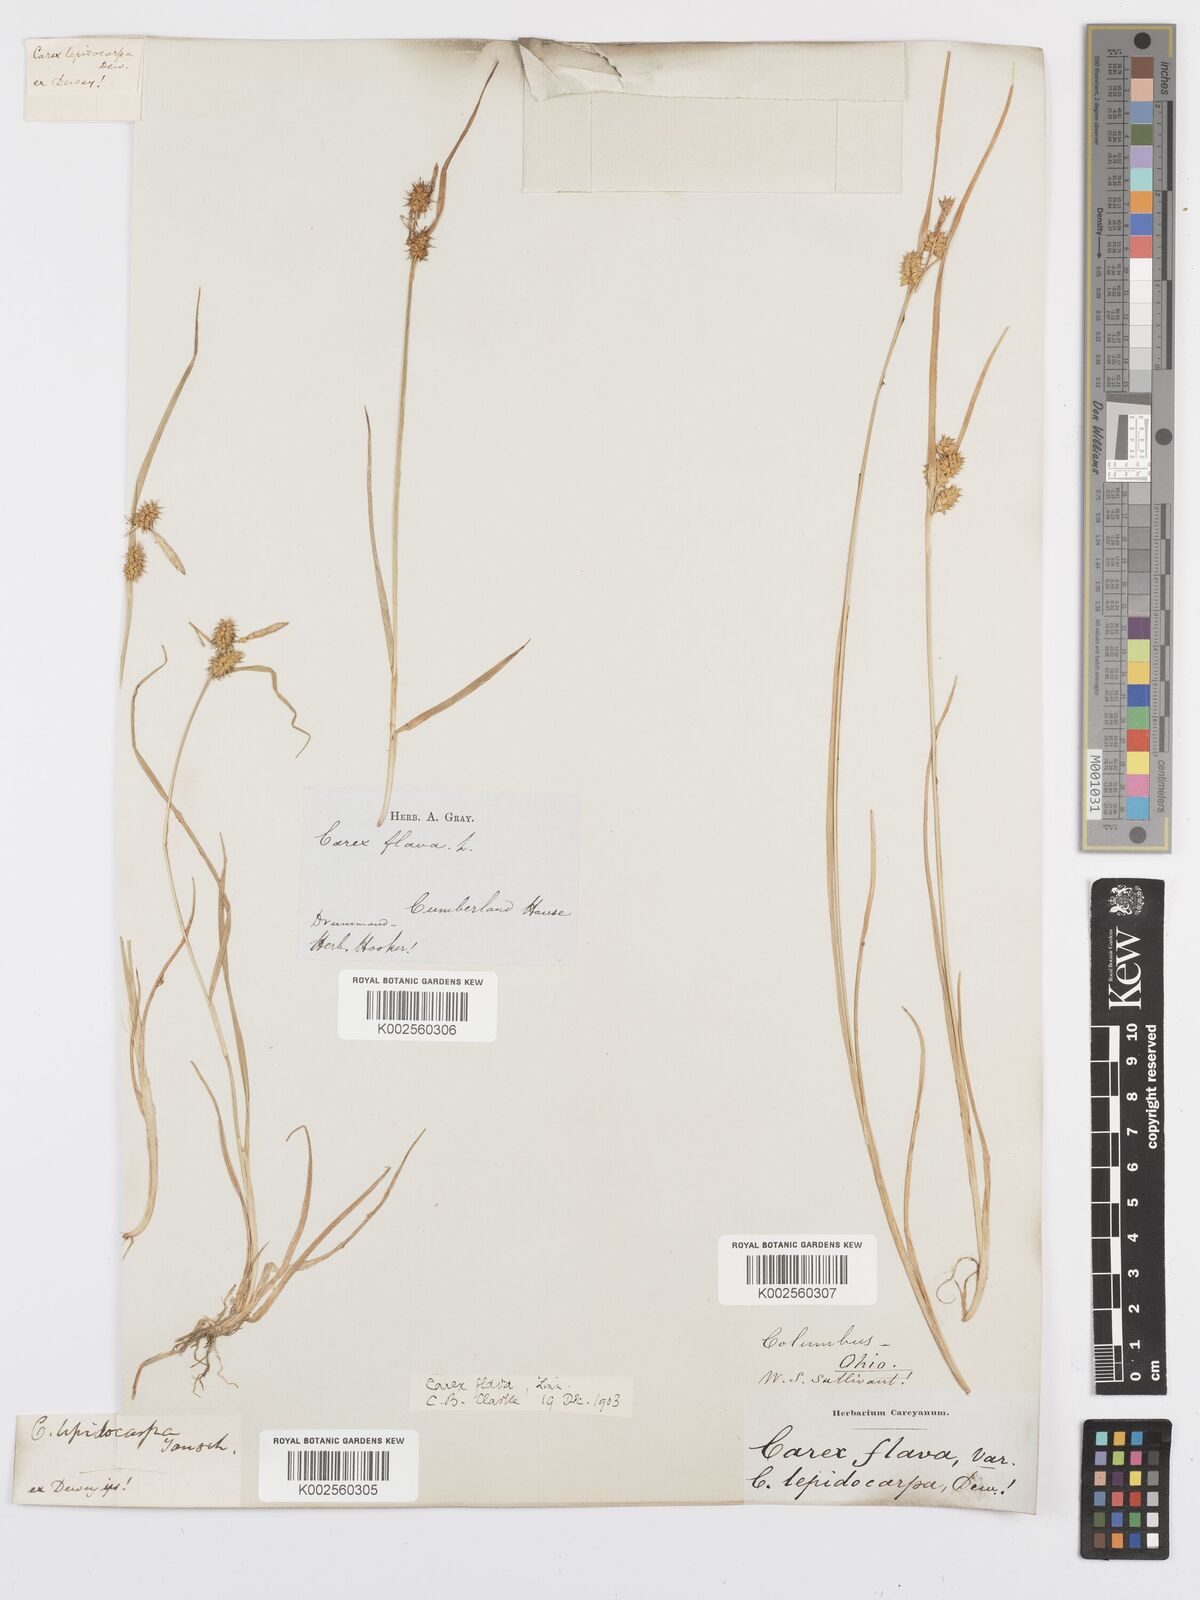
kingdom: Plantae
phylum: Tracheophyta
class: Liliopsida
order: Poales
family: Cyperaceae
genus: Carex
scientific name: Carex flava
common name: Large yellow-sedge
